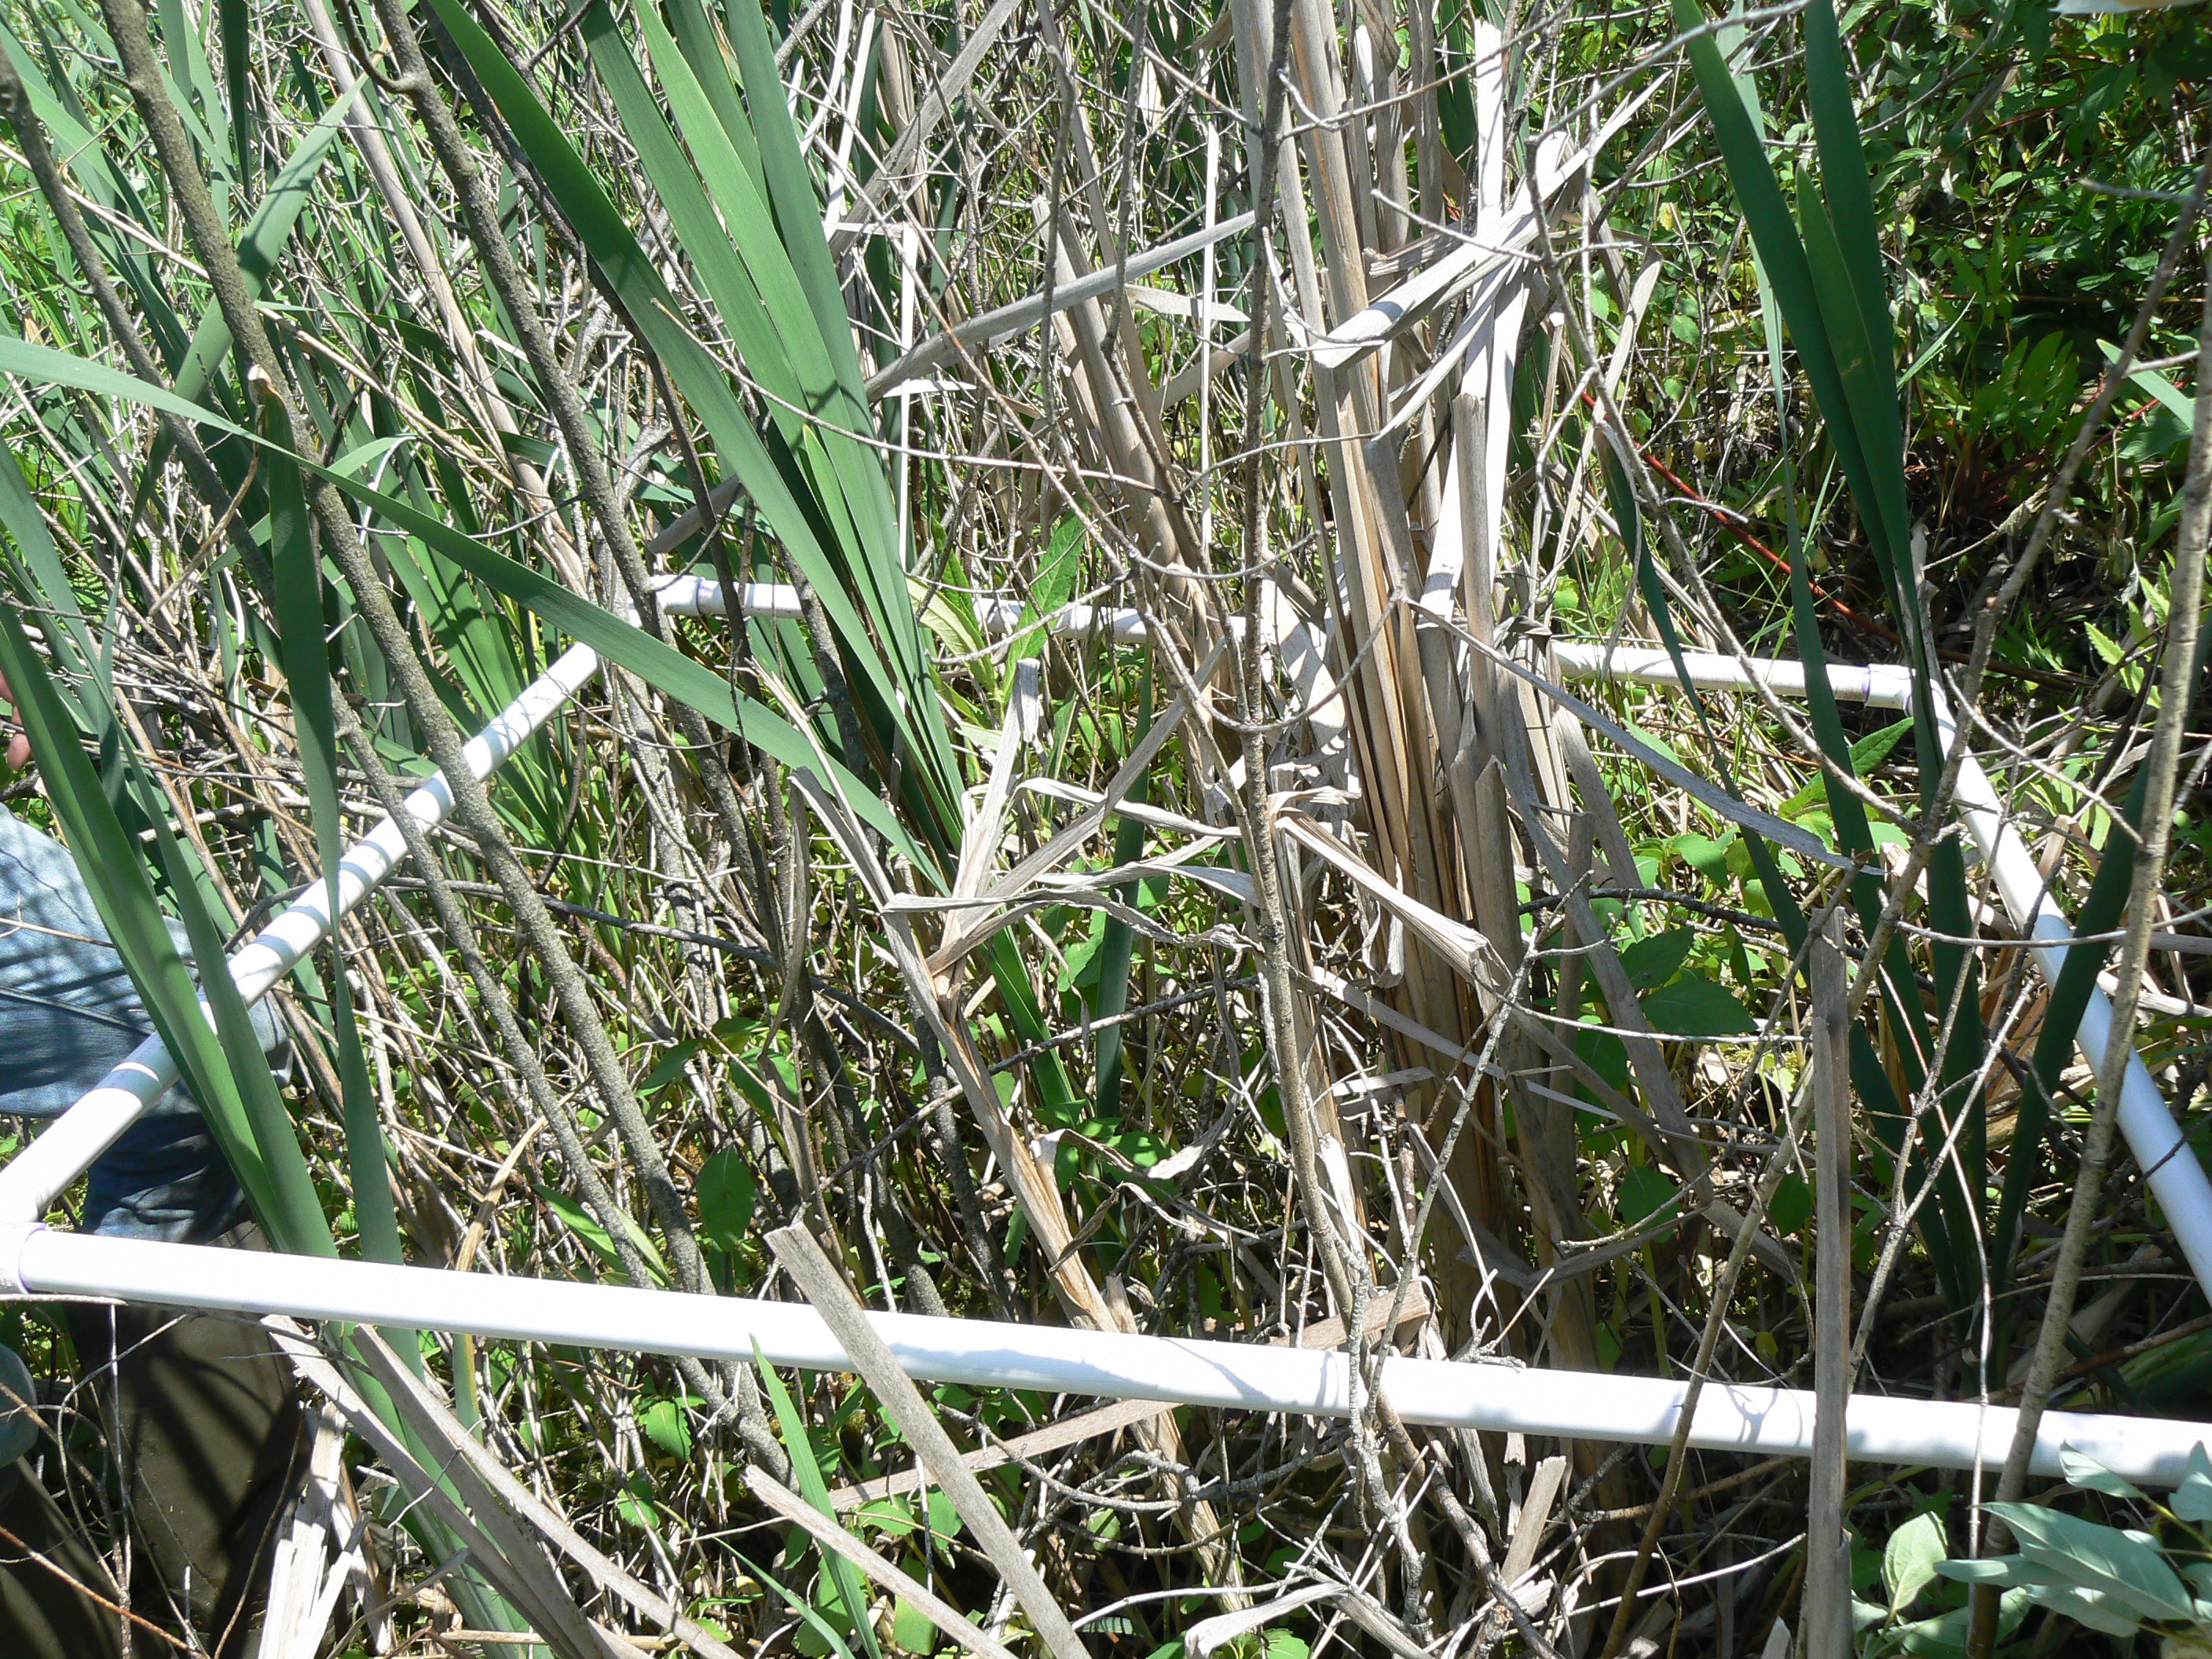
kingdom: Plantae
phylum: Tracheophyta
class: Polypodiopsida
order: Polypodiales
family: Onocleaceae
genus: Onoclea
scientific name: Onoclea sensibilis
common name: Sensitive fern
